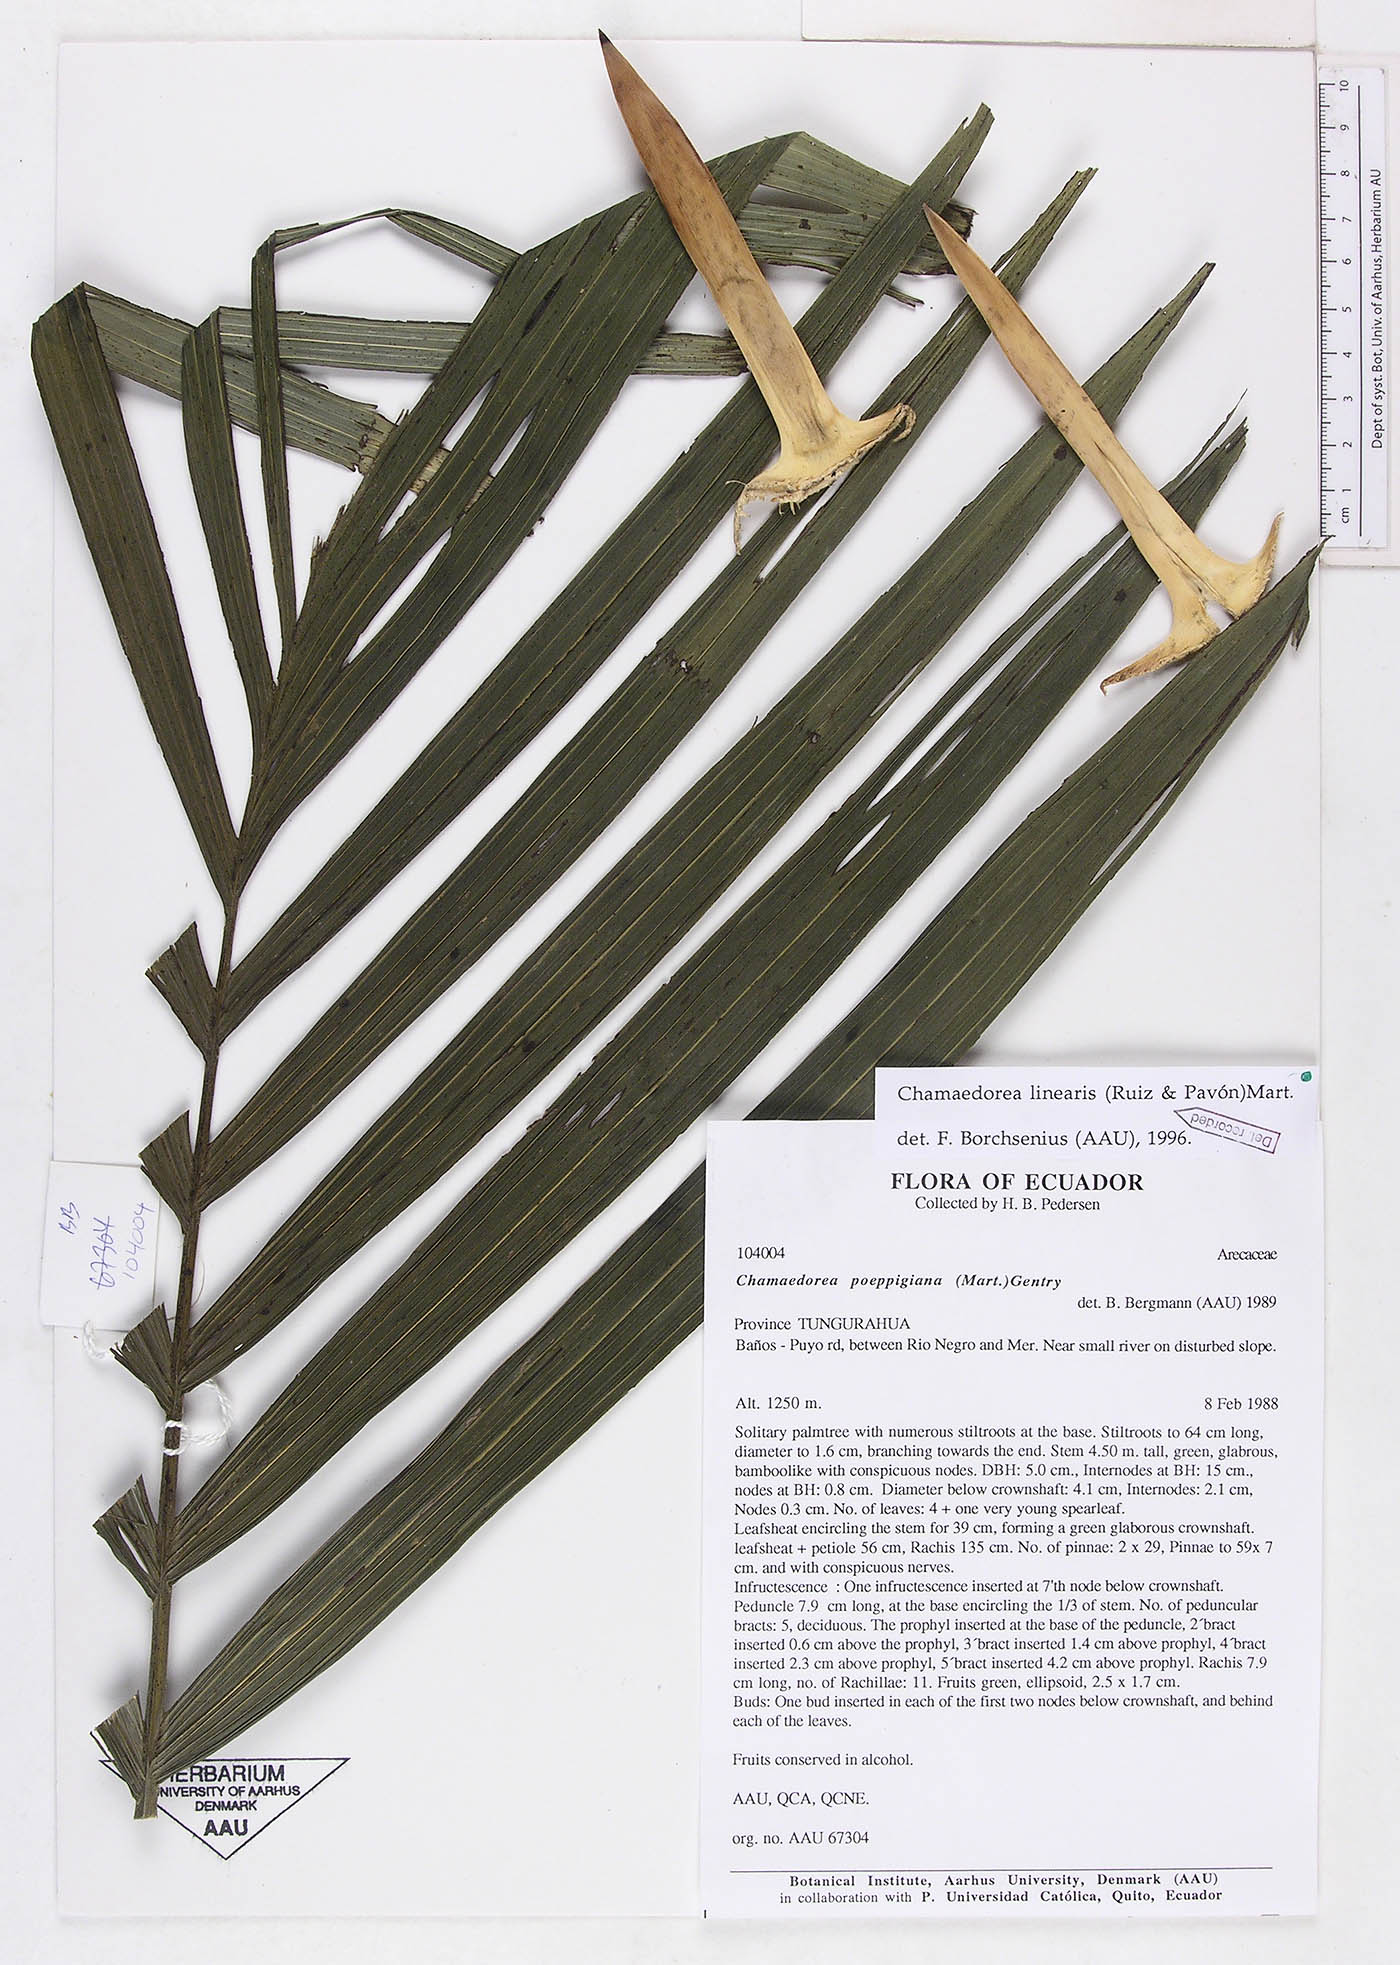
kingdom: Plantae
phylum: Tracheophyta
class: Liliopsida
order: Arecales
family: Arecaceae
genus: Chamaedorea
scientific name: Chamaedorea linearis
